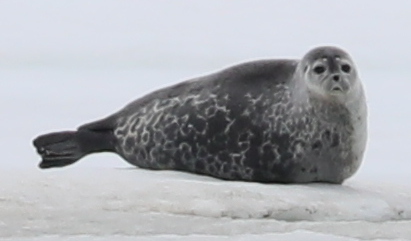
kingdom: Animalia
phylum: Chordata
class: Mammalia
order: Carnivora
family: Phocidae
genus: Pusa
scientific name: Pusa hispida
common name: Ringed Seal
